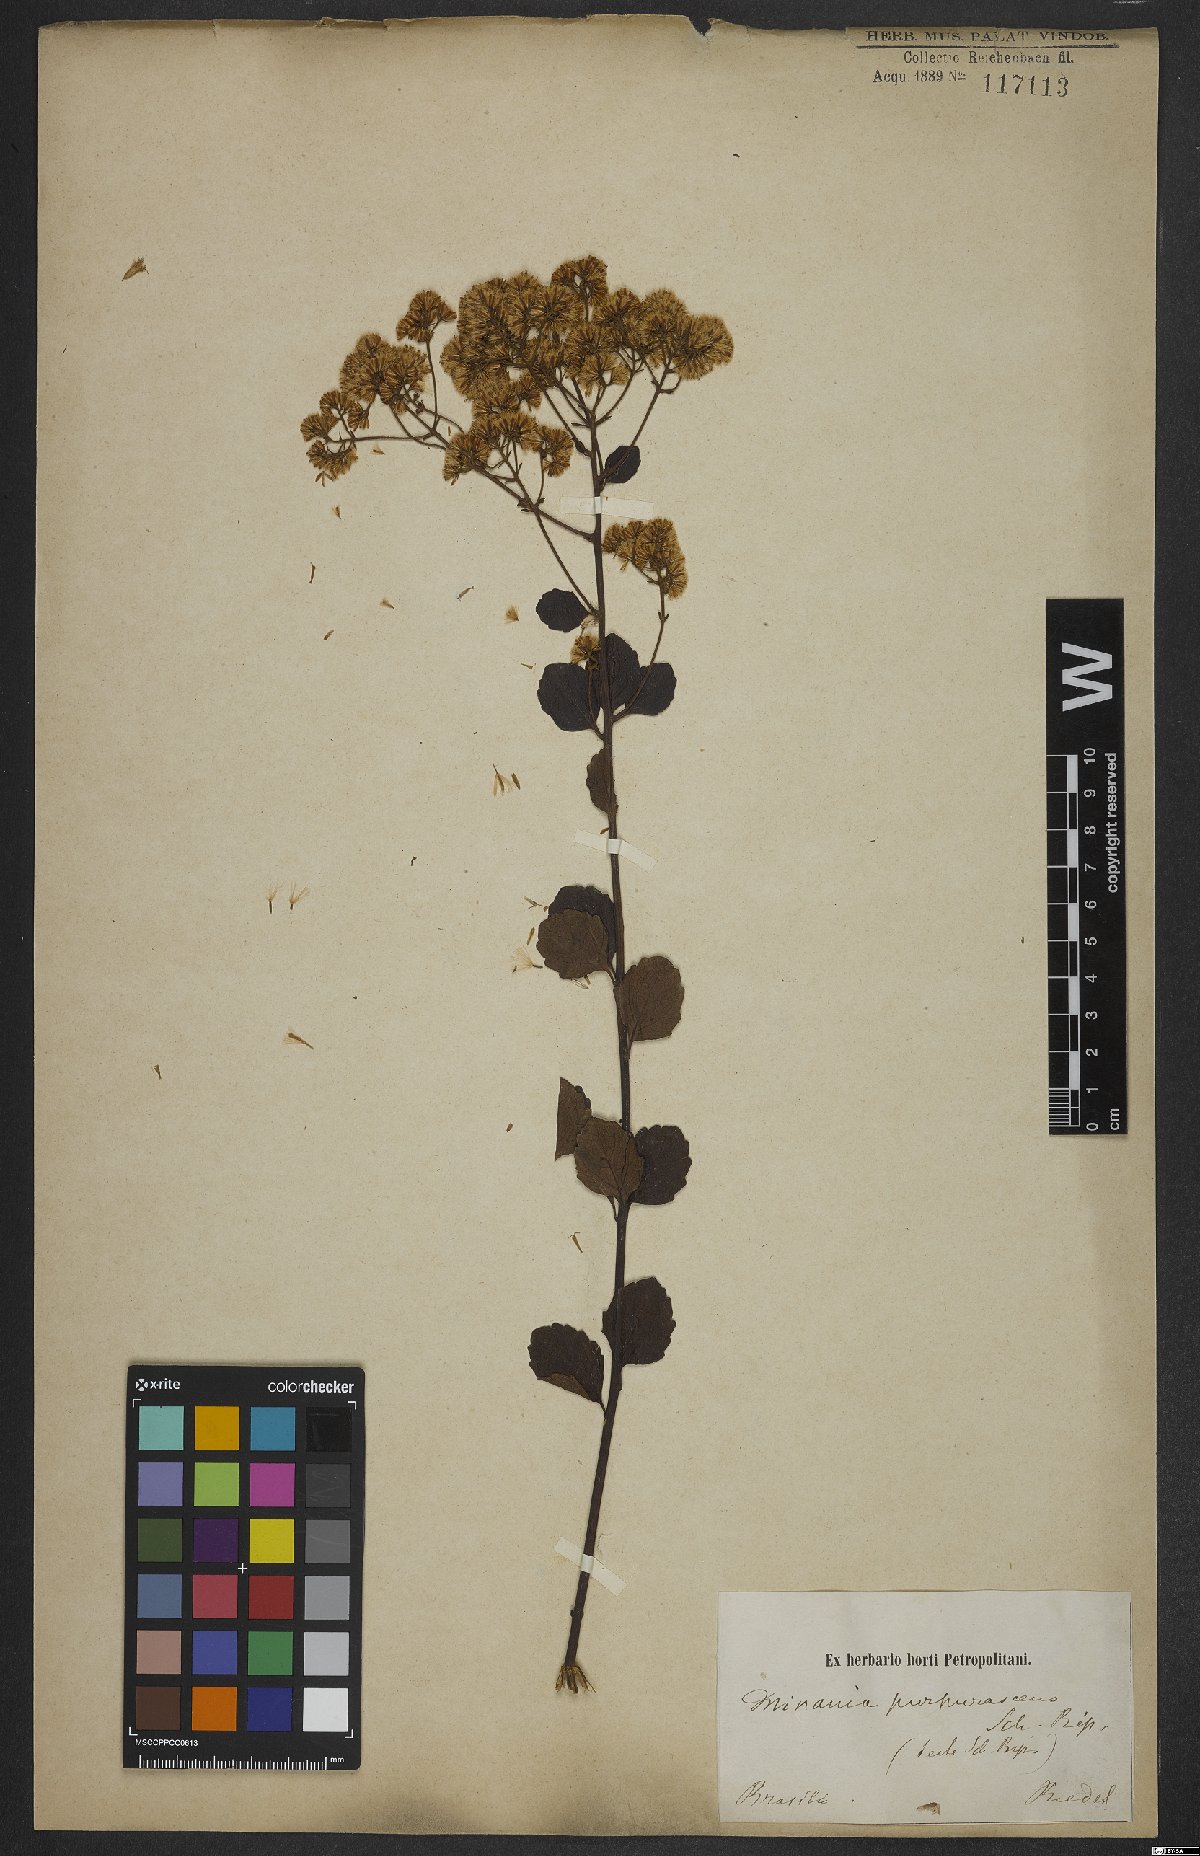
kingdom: Plantae
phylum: Tracheophyta
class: Magnoliopsida
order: Asterales
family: Asteraceae
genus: Mikania
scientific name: Mikania purpurascens
